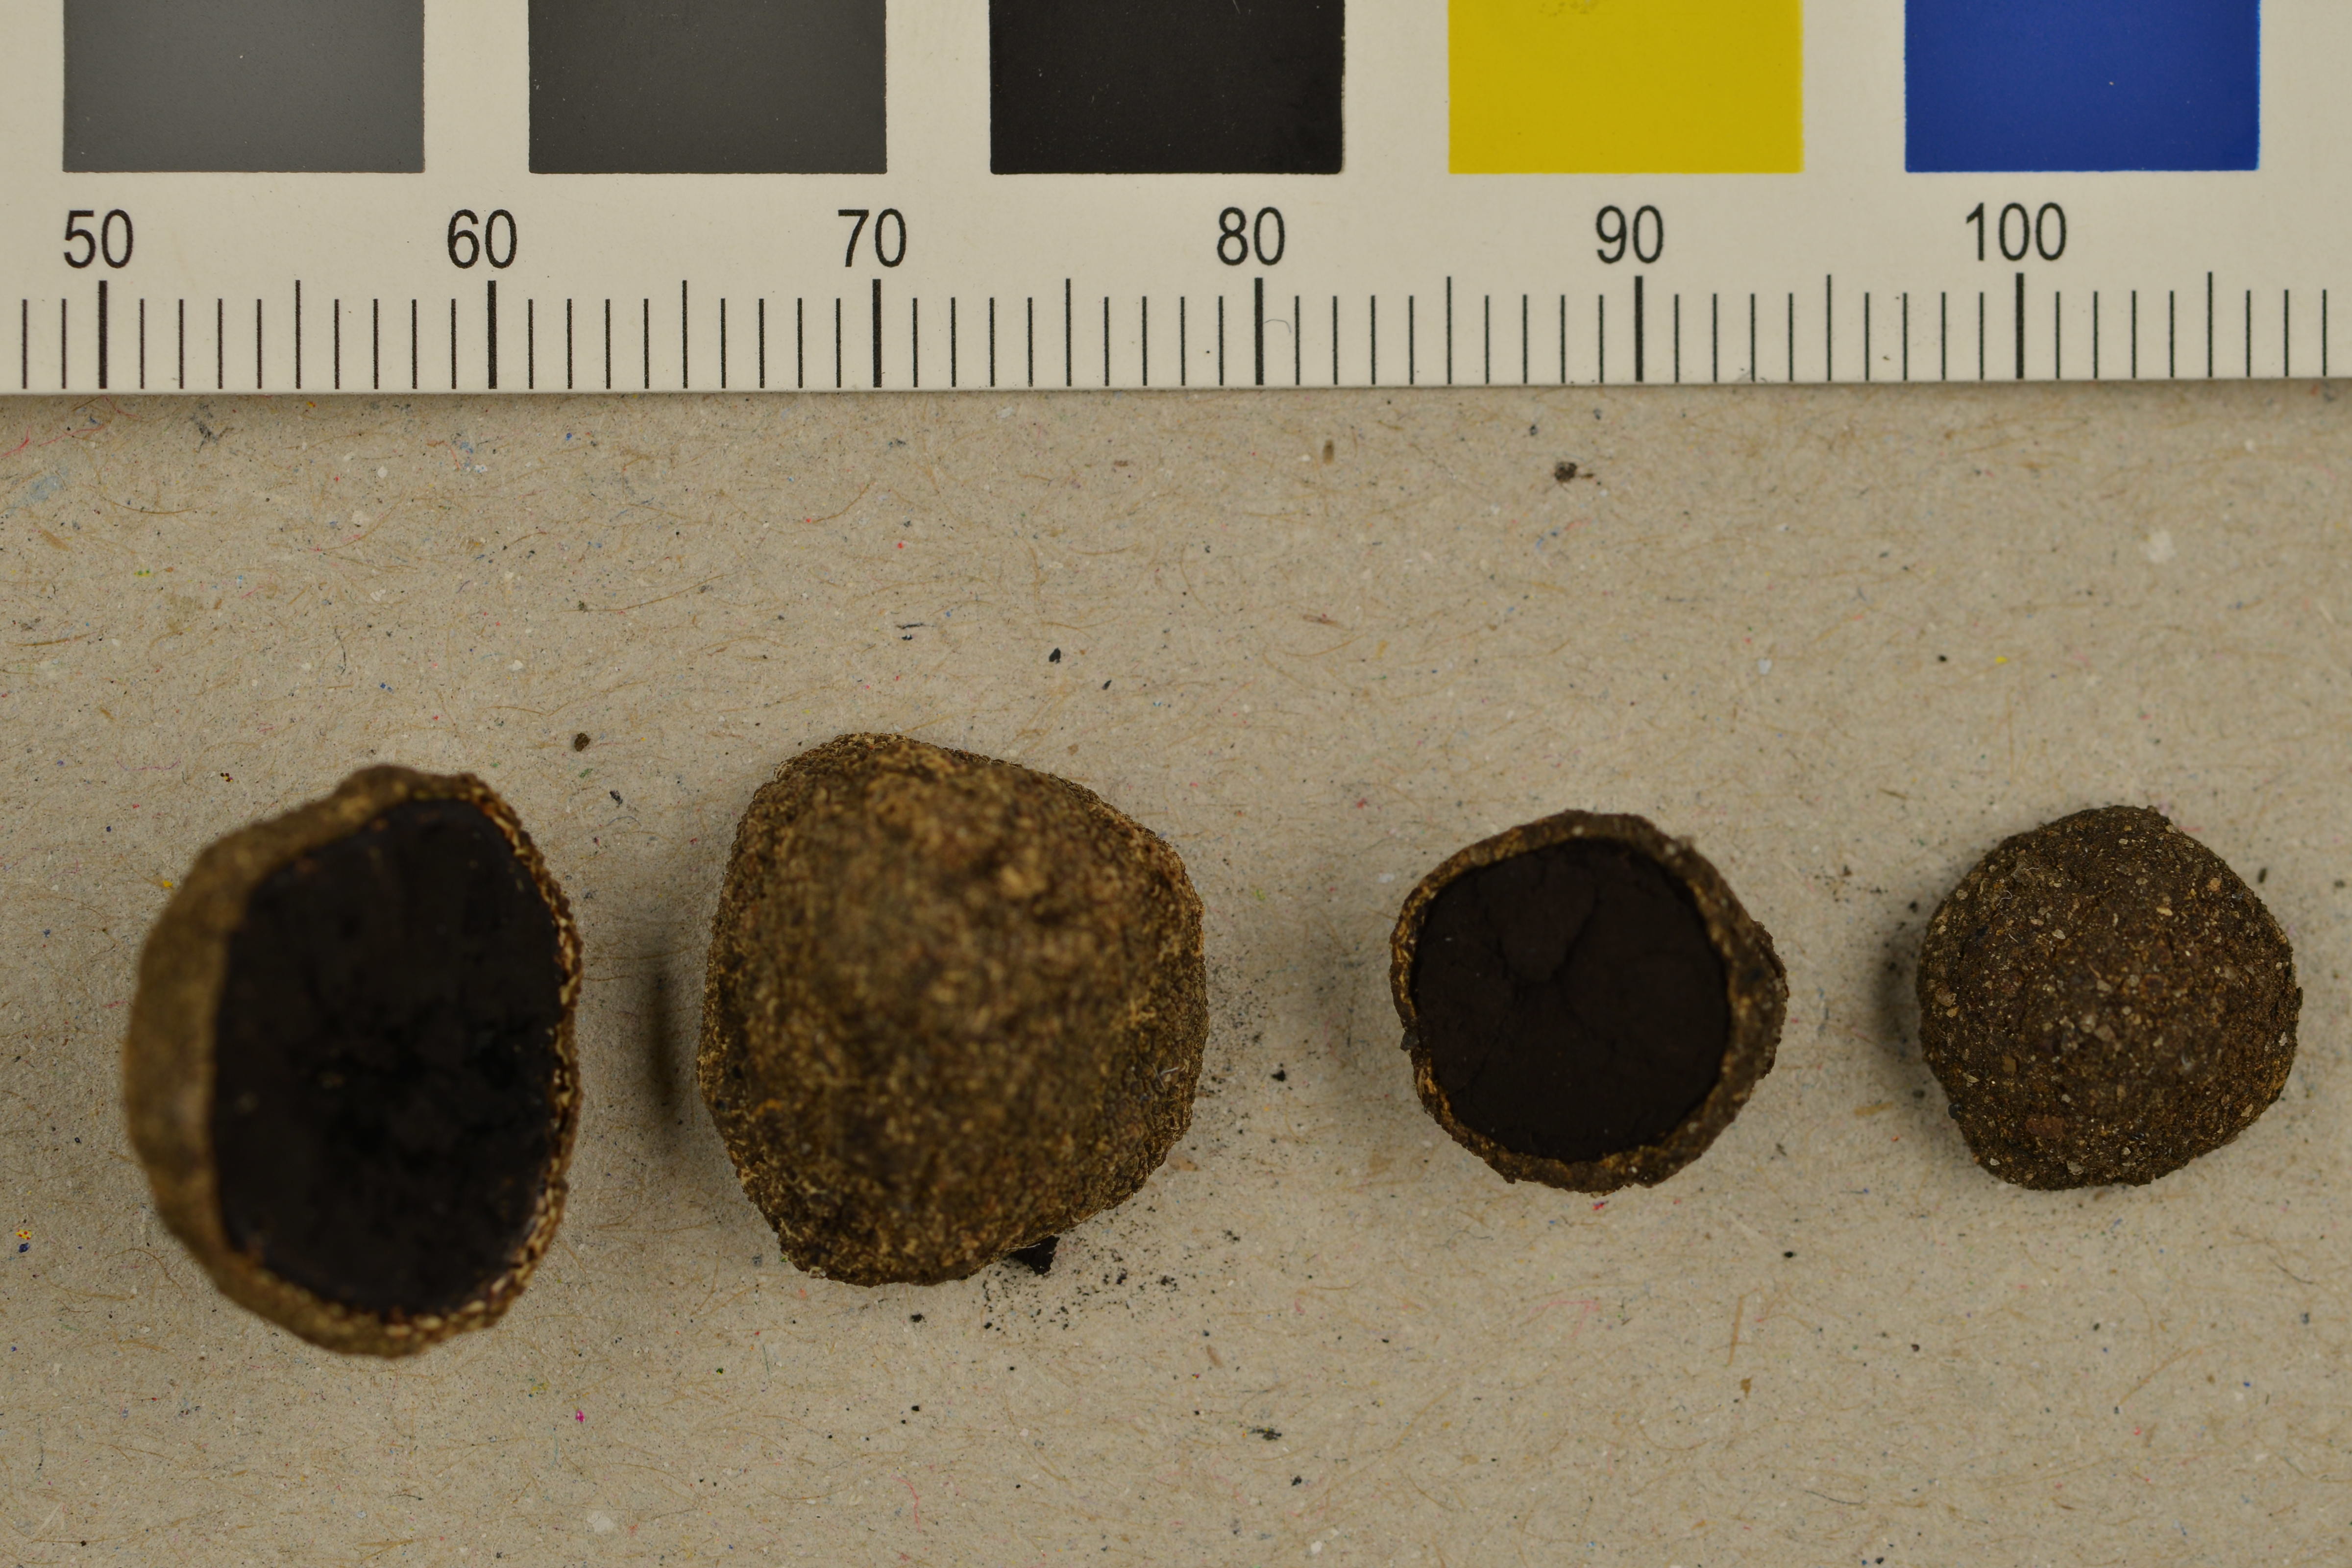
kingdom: Fungi
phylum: Ascomycota
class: Eurotiomycetes
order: Eurotiales
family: Elaphomycetaceae
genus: Elaphomyces
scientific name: Elaphomyces decipiens
